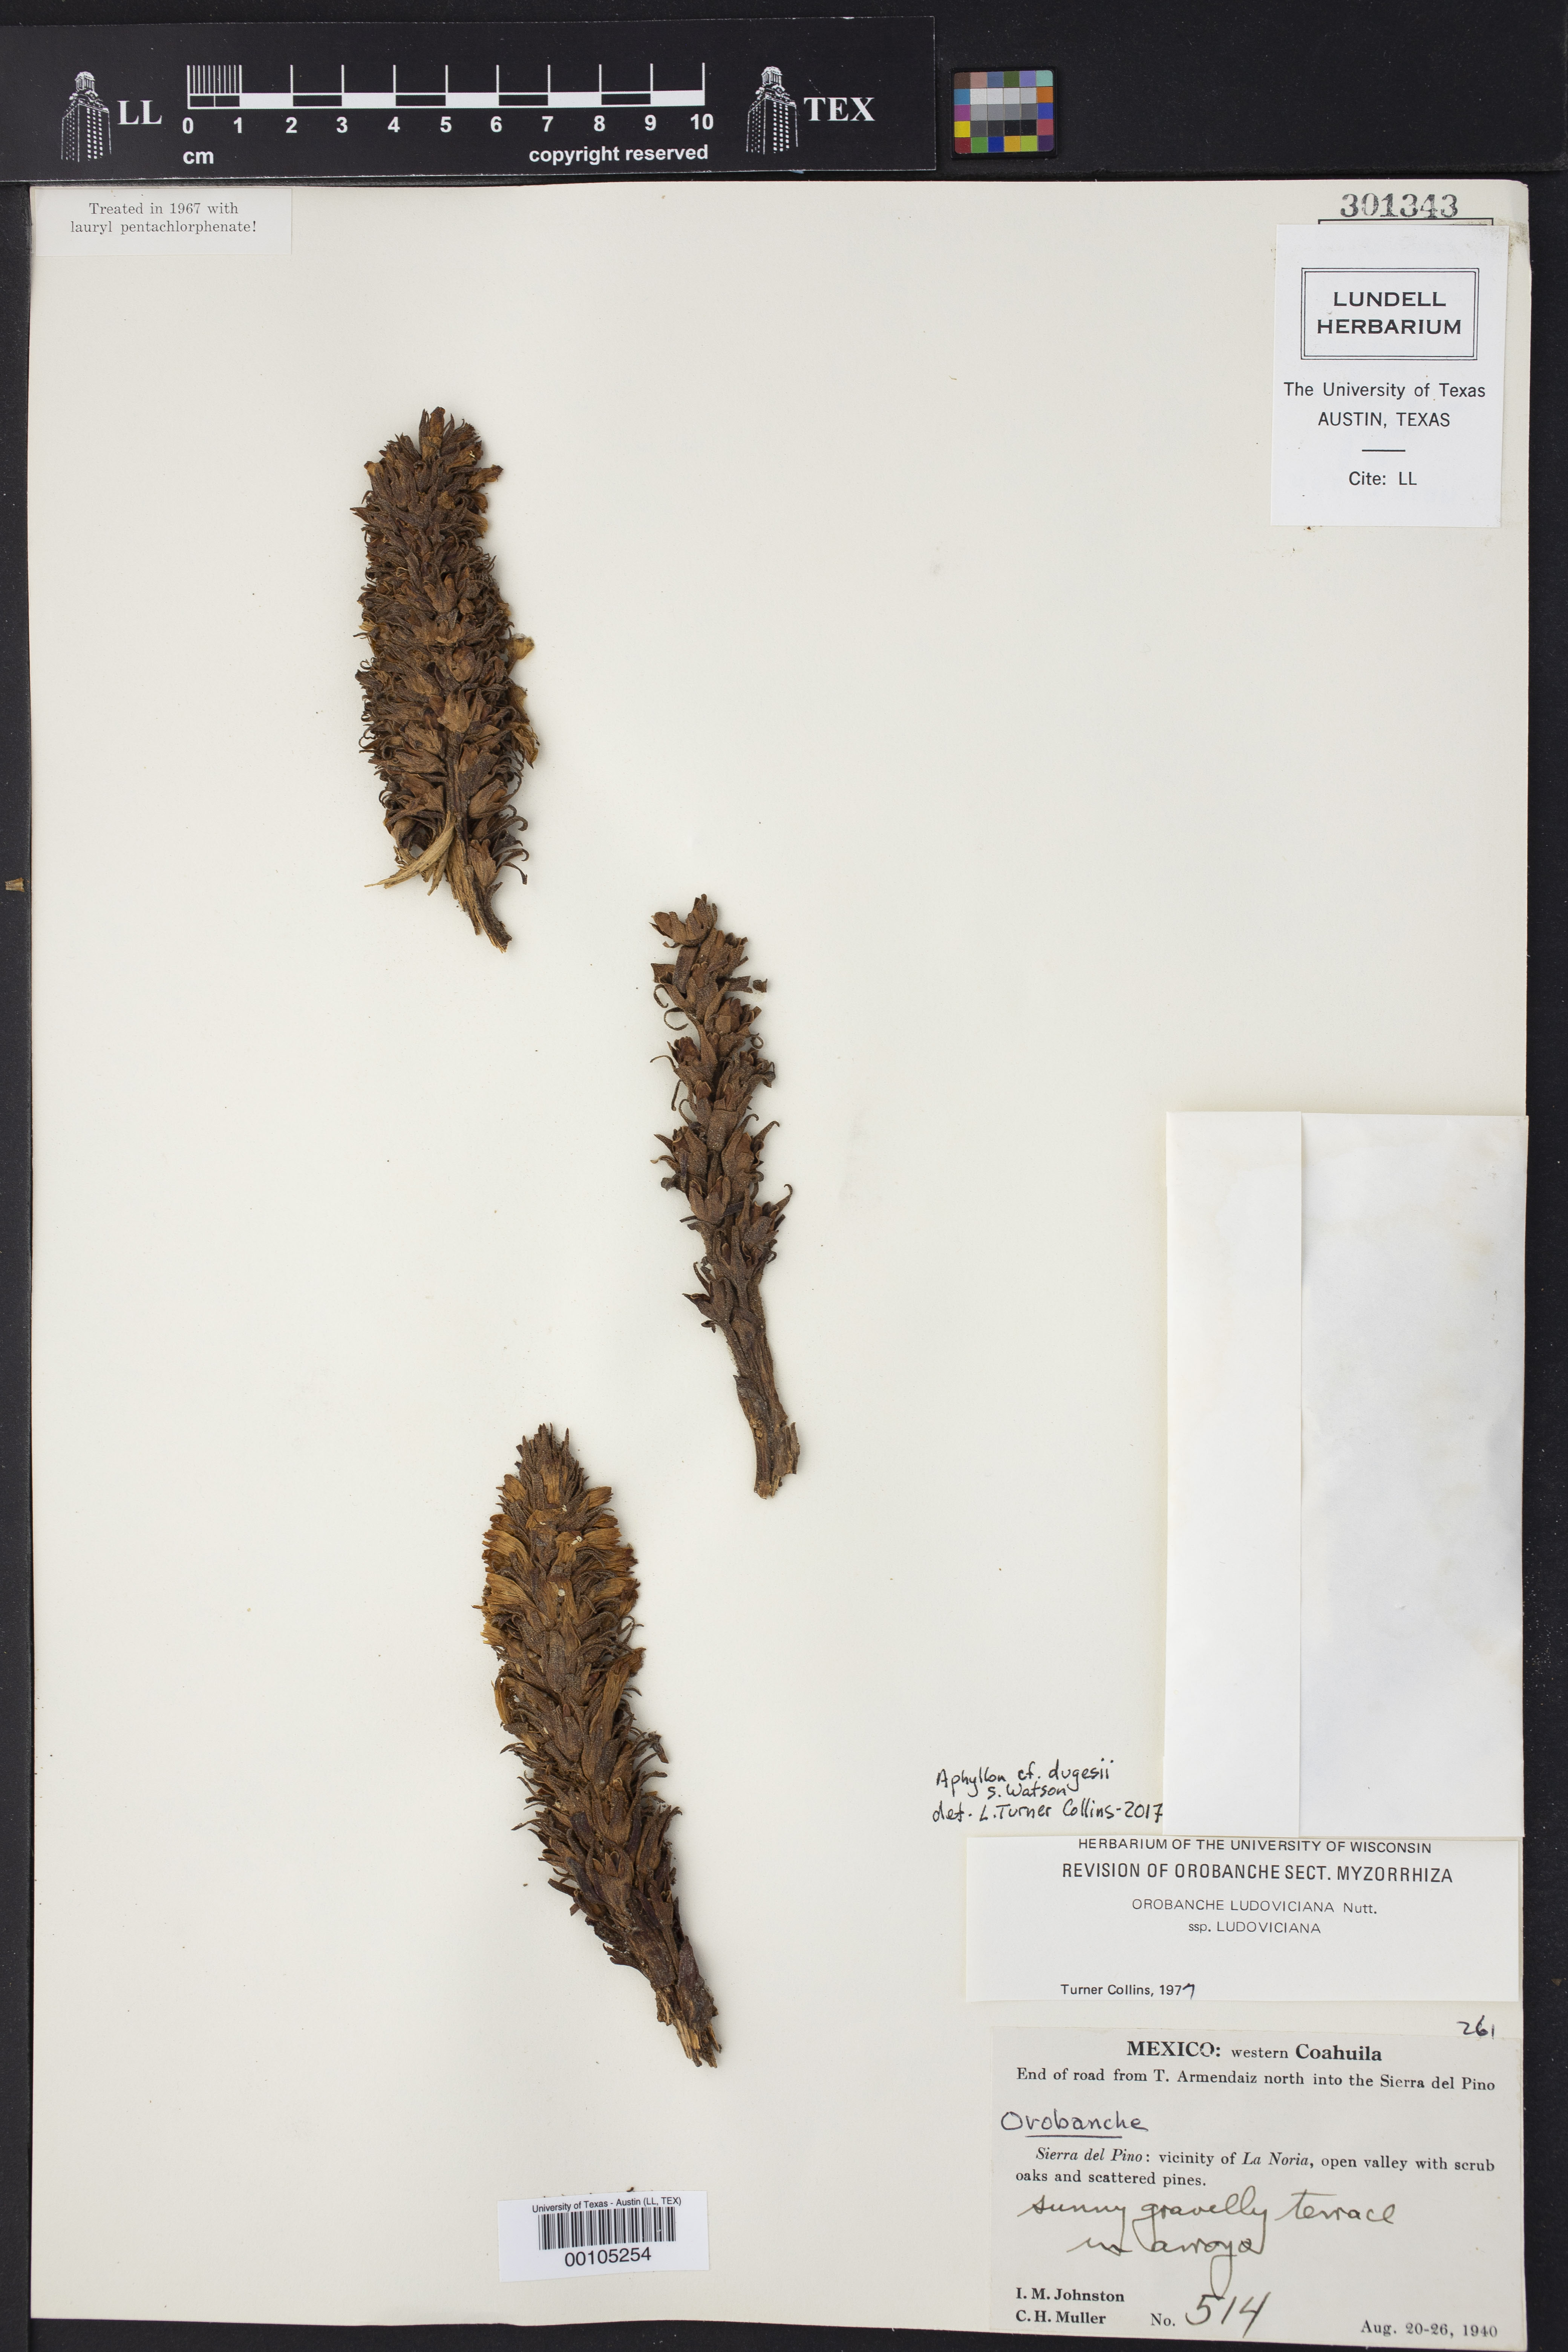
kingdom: Plantae
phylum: Tracheophyta
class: Magnoliopsida
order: Lamiales
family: Orobanchaceae
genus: Aphyllon
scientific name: Aphyllon dugesii
